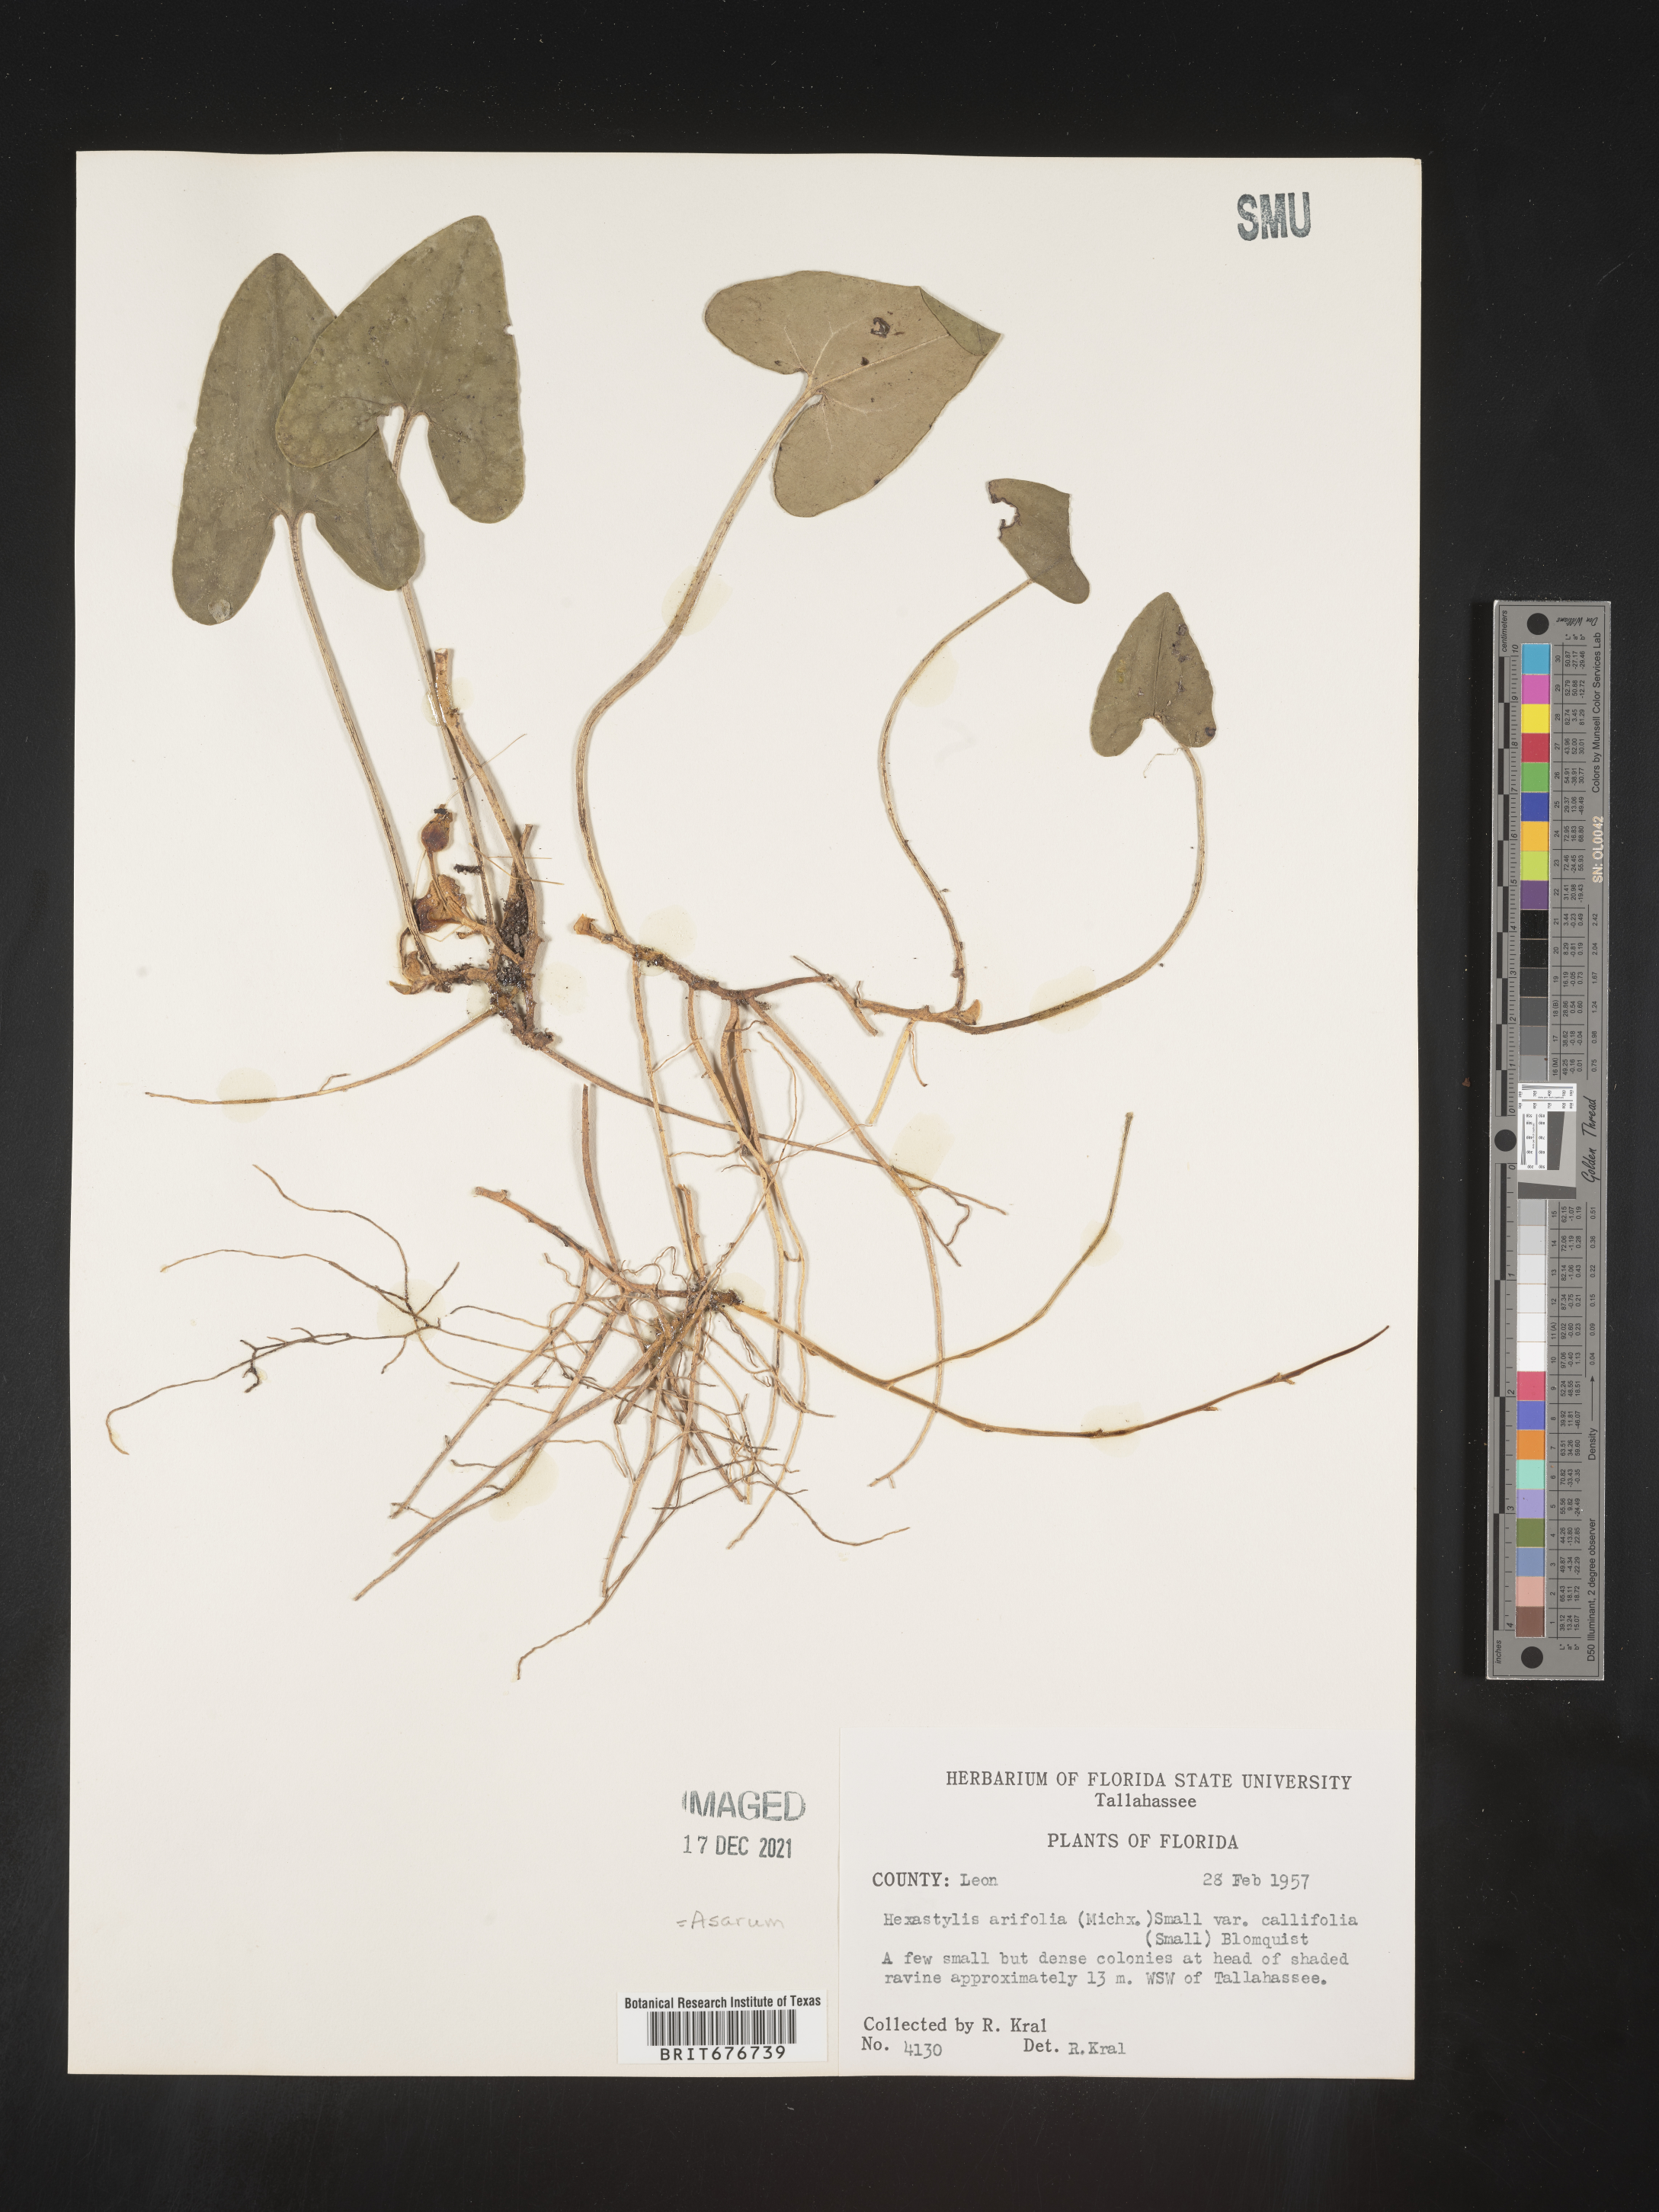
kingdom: Plantae
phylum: Tracheophyta
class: Magnoliopsida
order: Piperales
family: Aristolochiaceae
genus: Hexastylis
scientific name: Hexastylis arifolia
